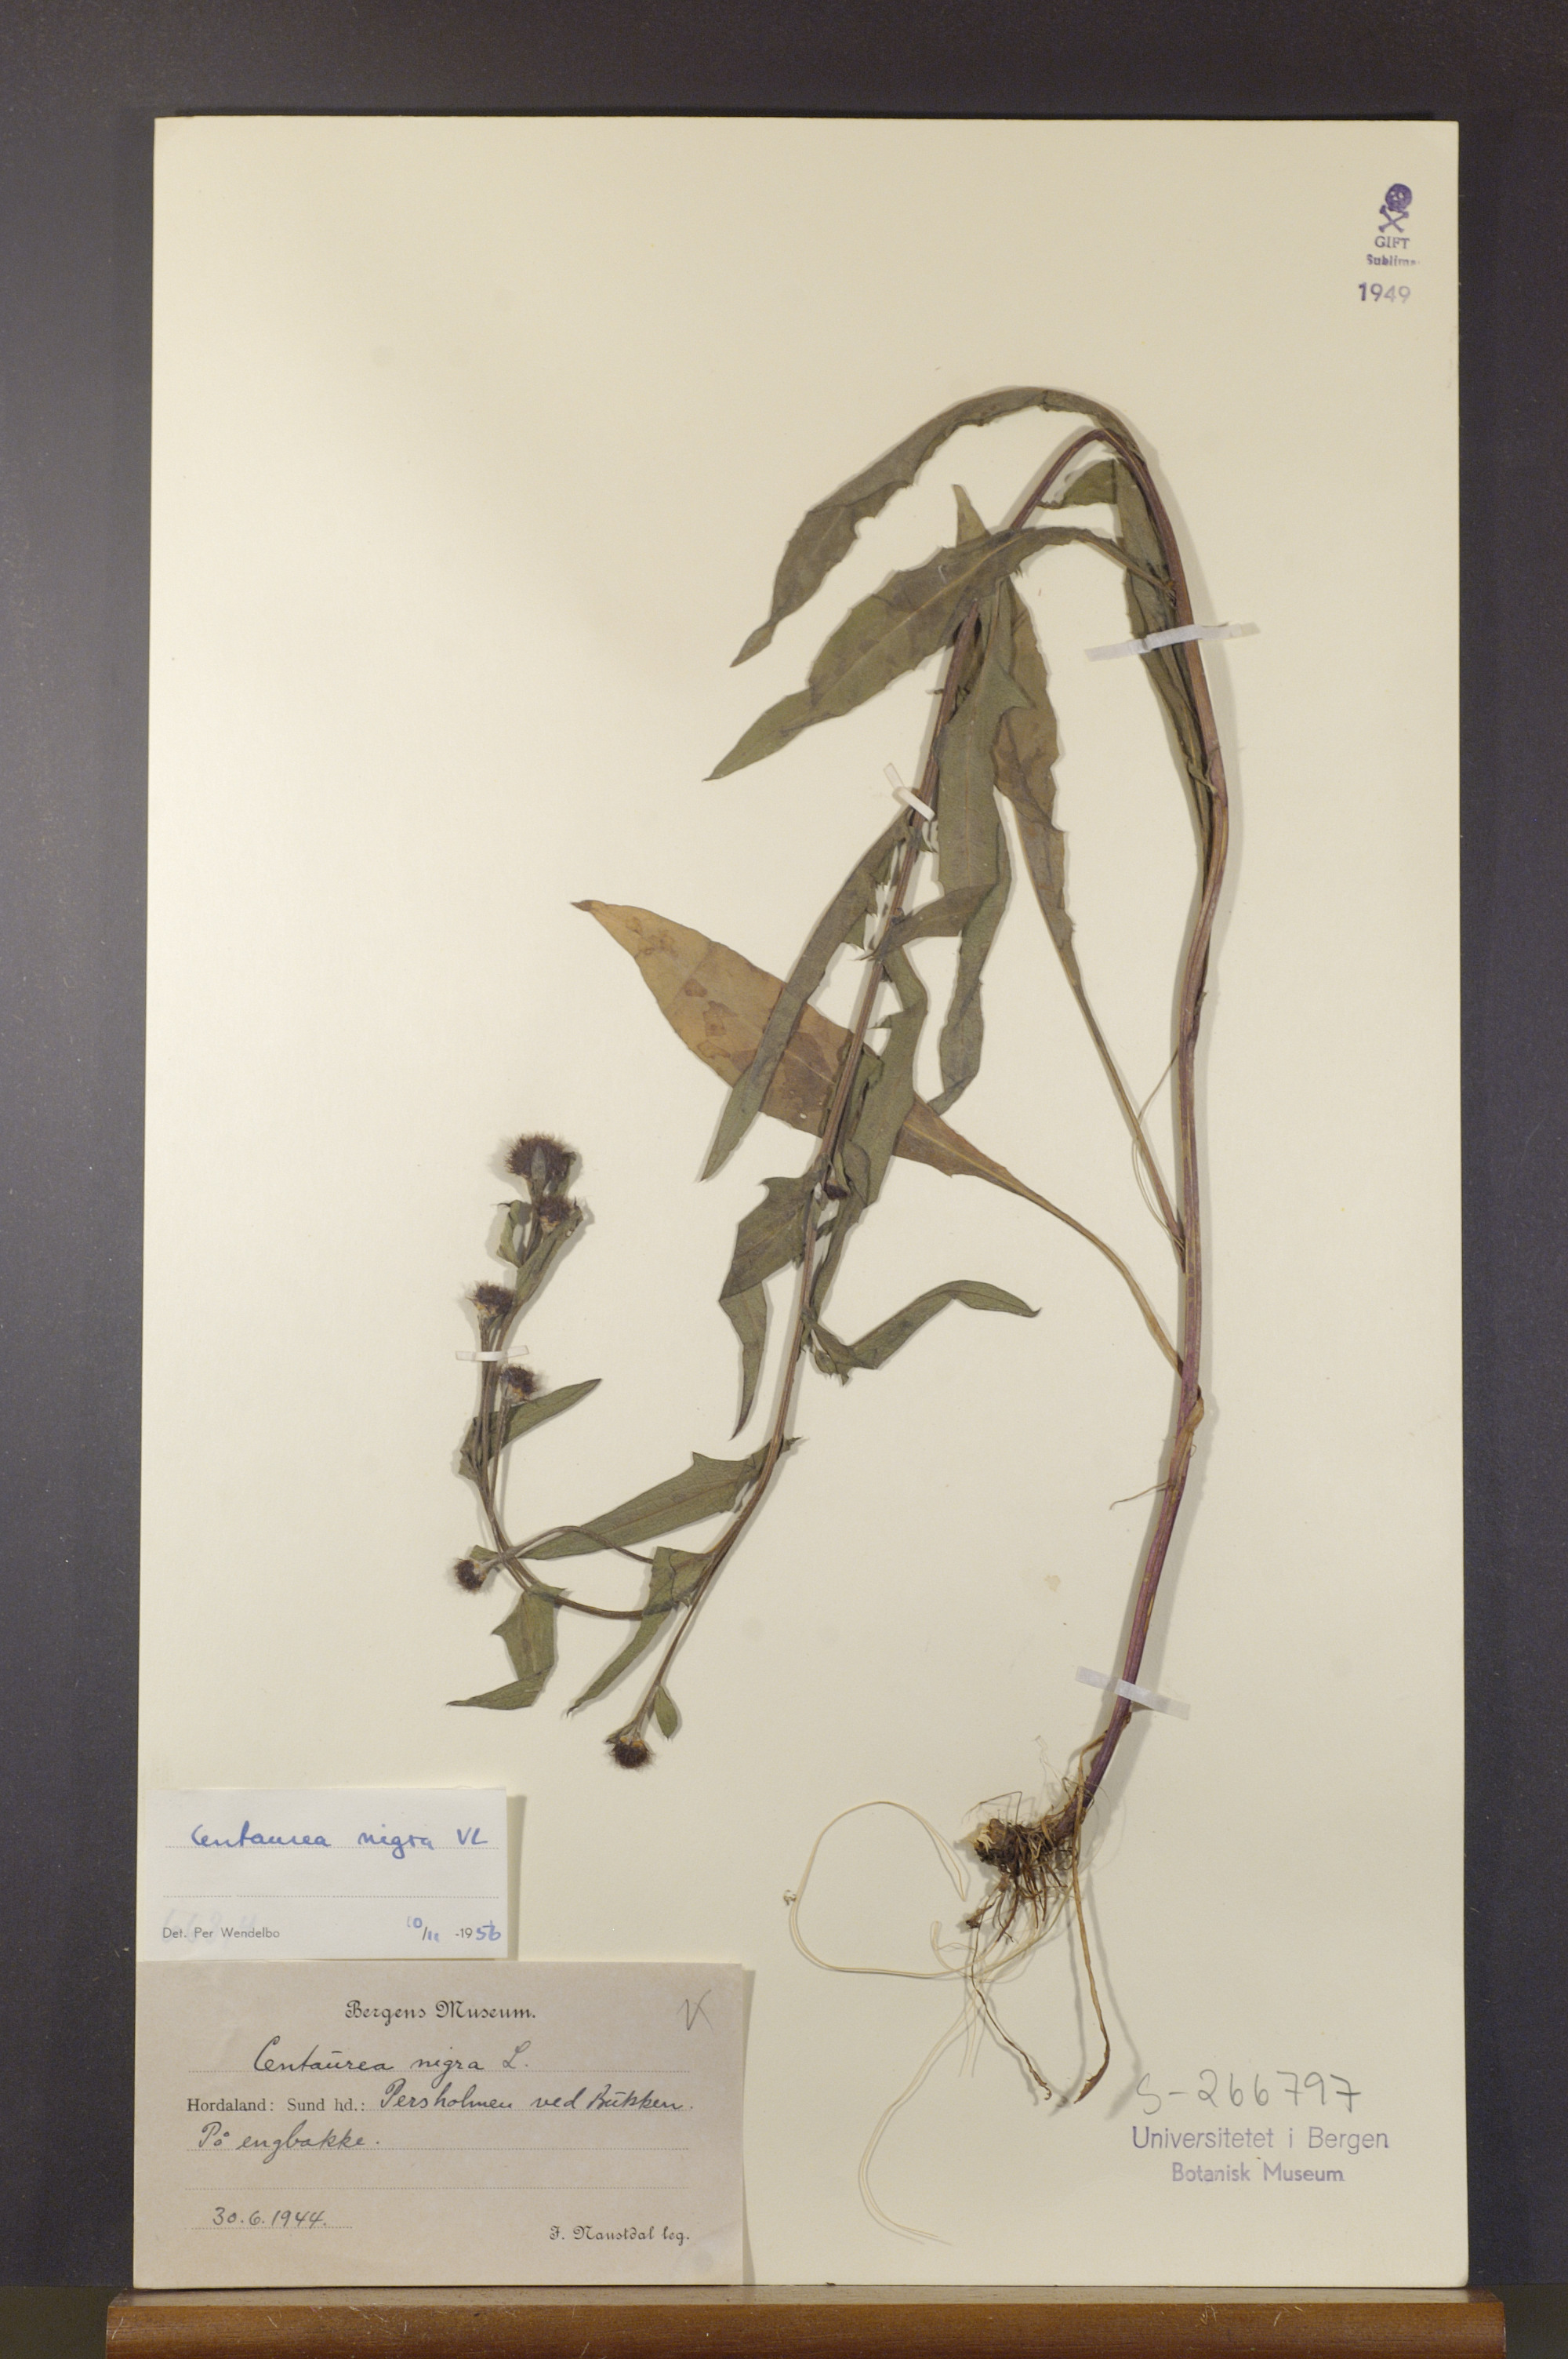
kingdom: Plantae
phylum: Tracheophyta
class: Magnoliopsida
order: Asterales
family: Asteraceae
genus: Centaurea
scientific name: Centaurea nigra
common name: Lesser knapweed
